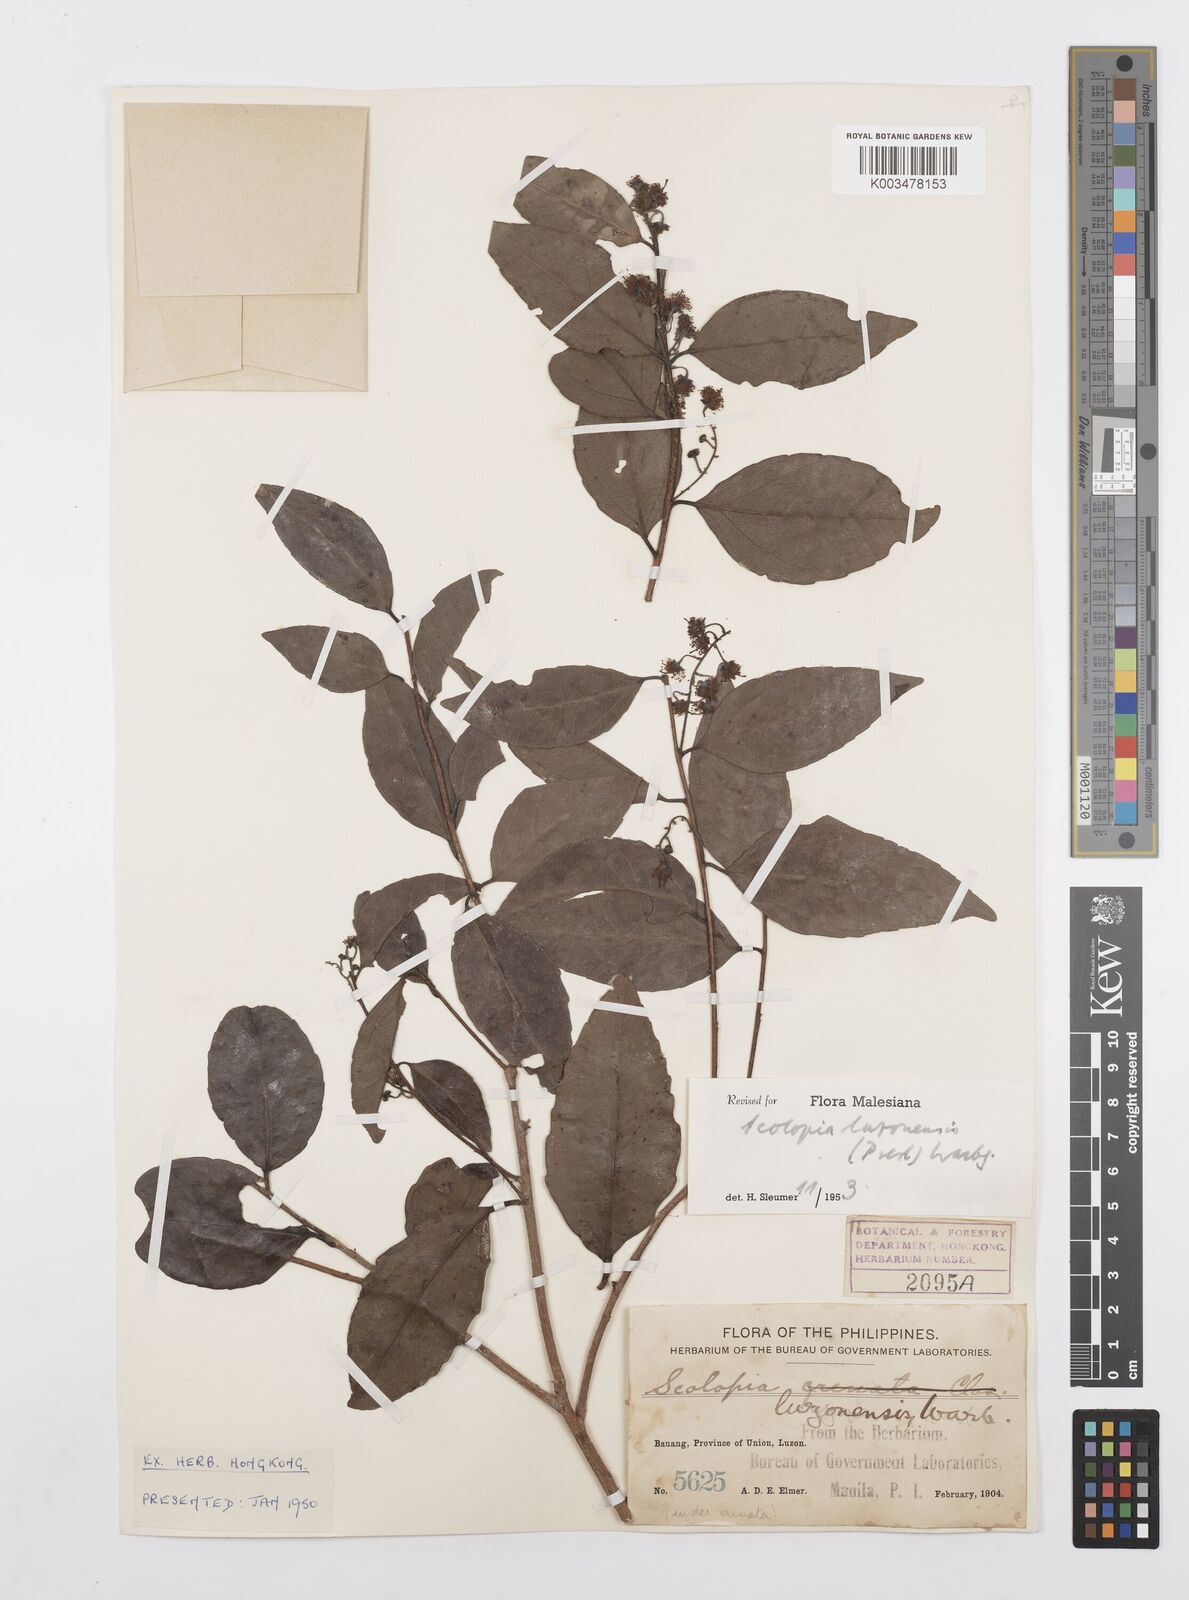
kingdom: Plantae
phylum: Tracheophyta
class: Magnoliopsida
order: Malpighiales
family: Salicaceae
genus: Scolopia
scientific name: Scolopia luzonensis
